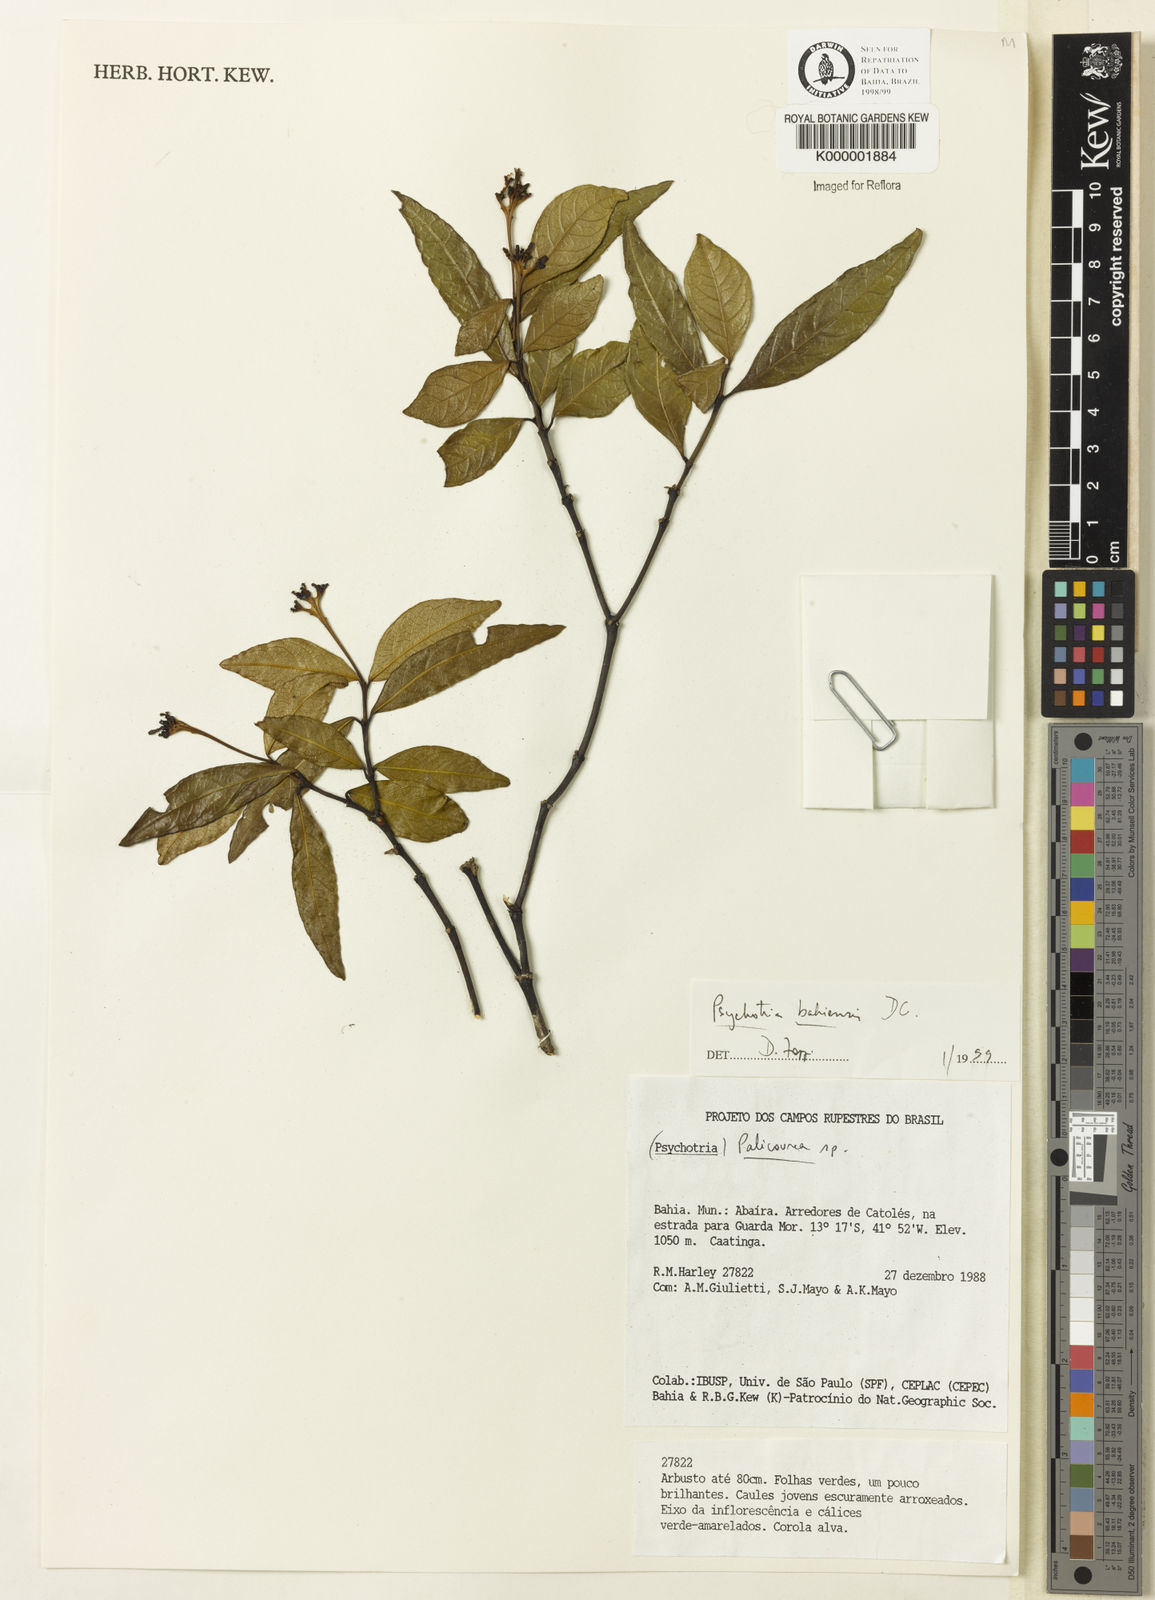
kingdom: Plantae
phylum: Tracheophyta
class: Magnoliopsida
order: Gentianales
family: Rubiaceae
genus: Psychotria
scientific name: Psychotria bahiensis
